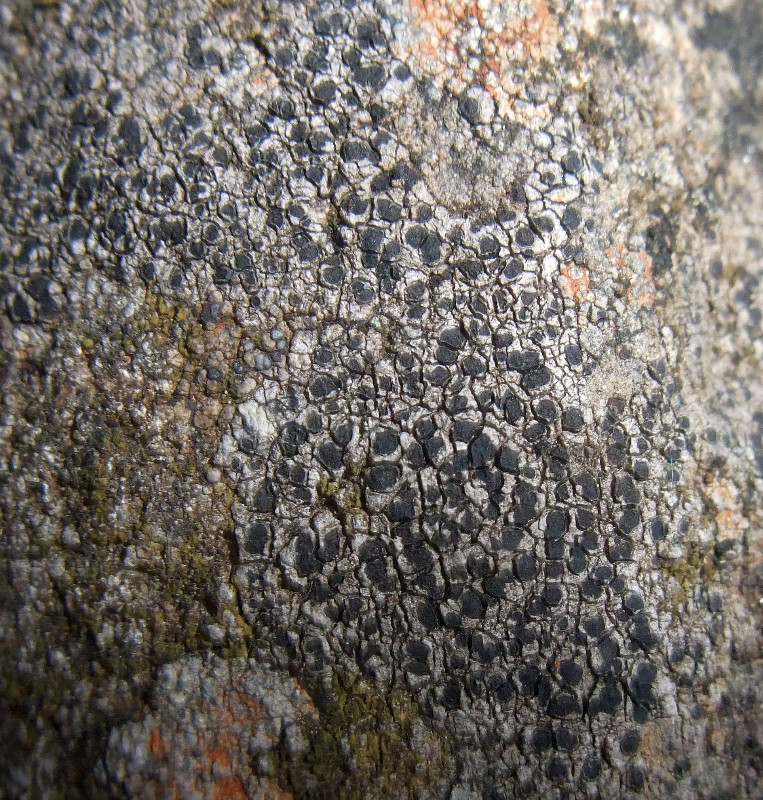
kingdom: Fungi
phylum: Ascomycota
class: Lecanoromycetes
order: Rhizocarpales
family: Rhizocarpaceae
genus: Rhizocarpon
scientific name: Rhizocarpon
